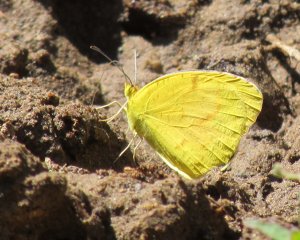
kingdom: Animalia
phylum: Arthropoda
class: Insecta
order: Lepidoptera
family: Pieridae
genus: Abaeis
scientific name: Abaeis nicippe
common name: Sleepy Orange
